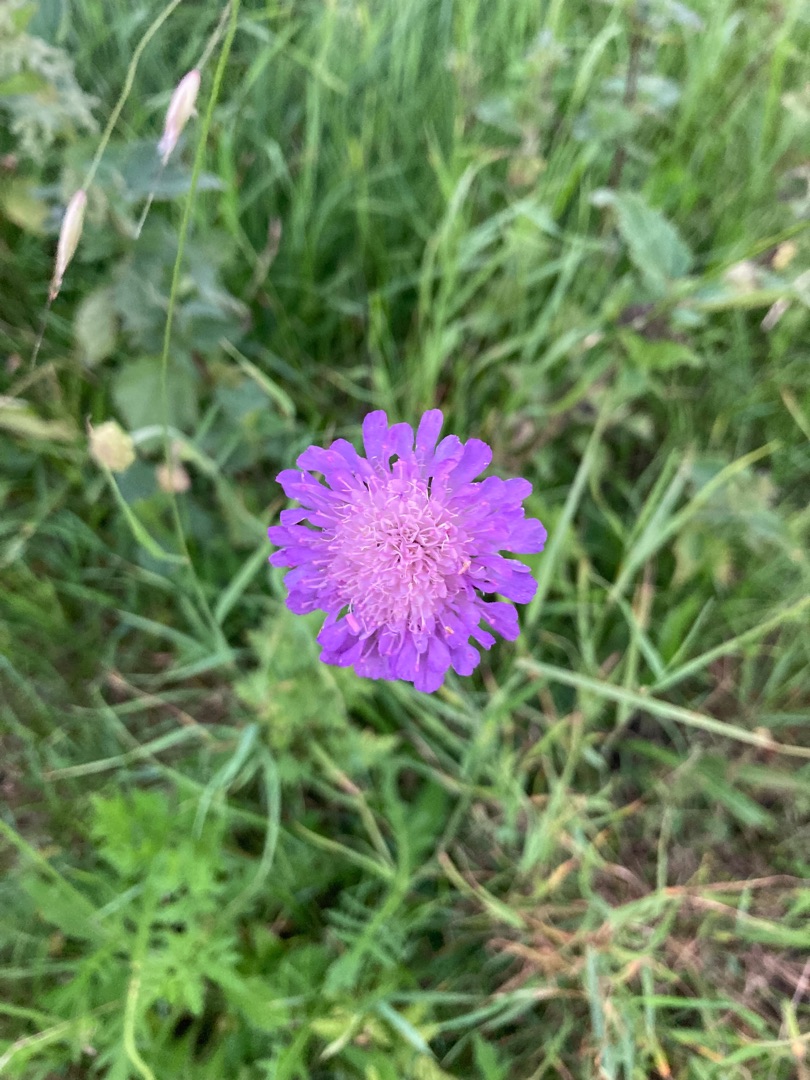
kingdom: Plantae
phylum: Tracheophyta
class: Magnoliopsida
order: Dipsacales
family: Caprifoliaceae
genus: Knautia
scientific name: Knautia arvensis
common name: Blåhat
